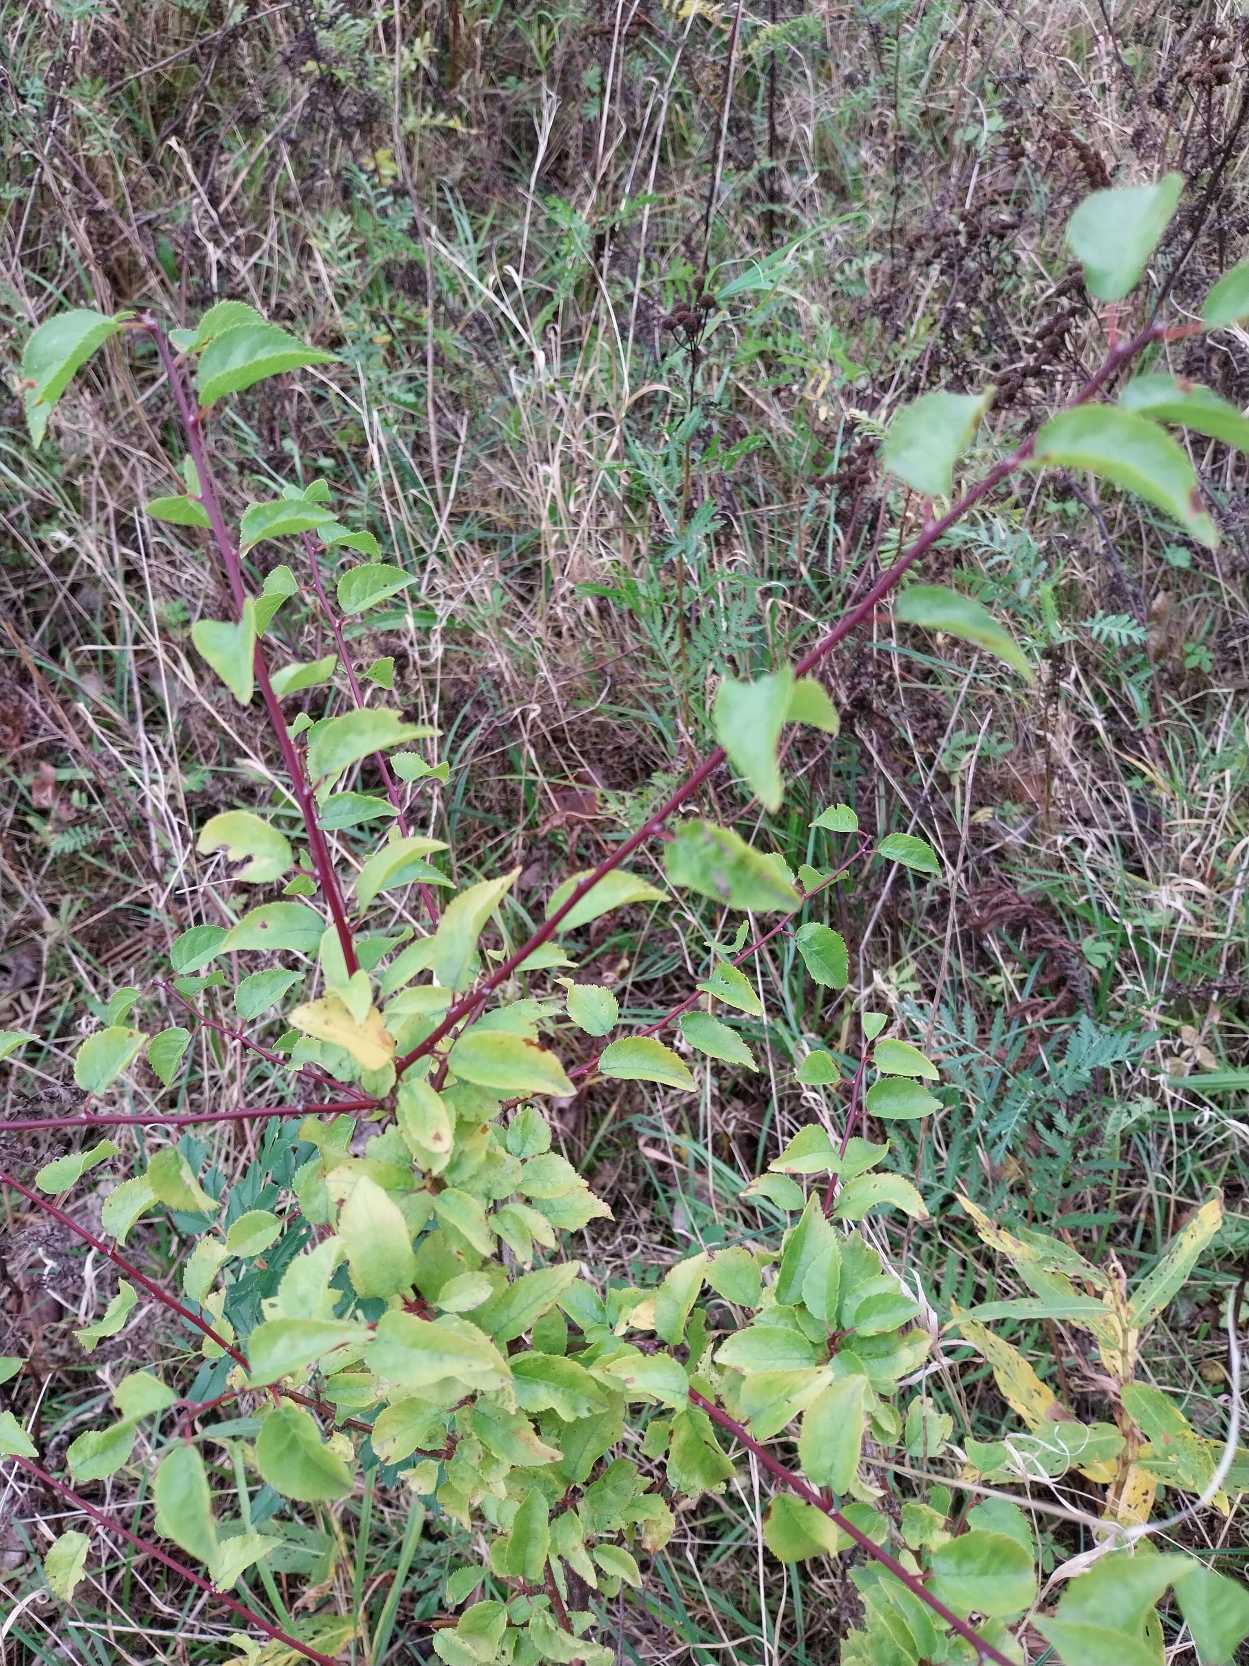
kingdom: Plantae
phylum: Tracheophyta
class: Magnoliopsida
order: Rosales
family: Rosaceae
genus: Prunus
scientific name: Prunus cerasifera
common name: Mirabel
